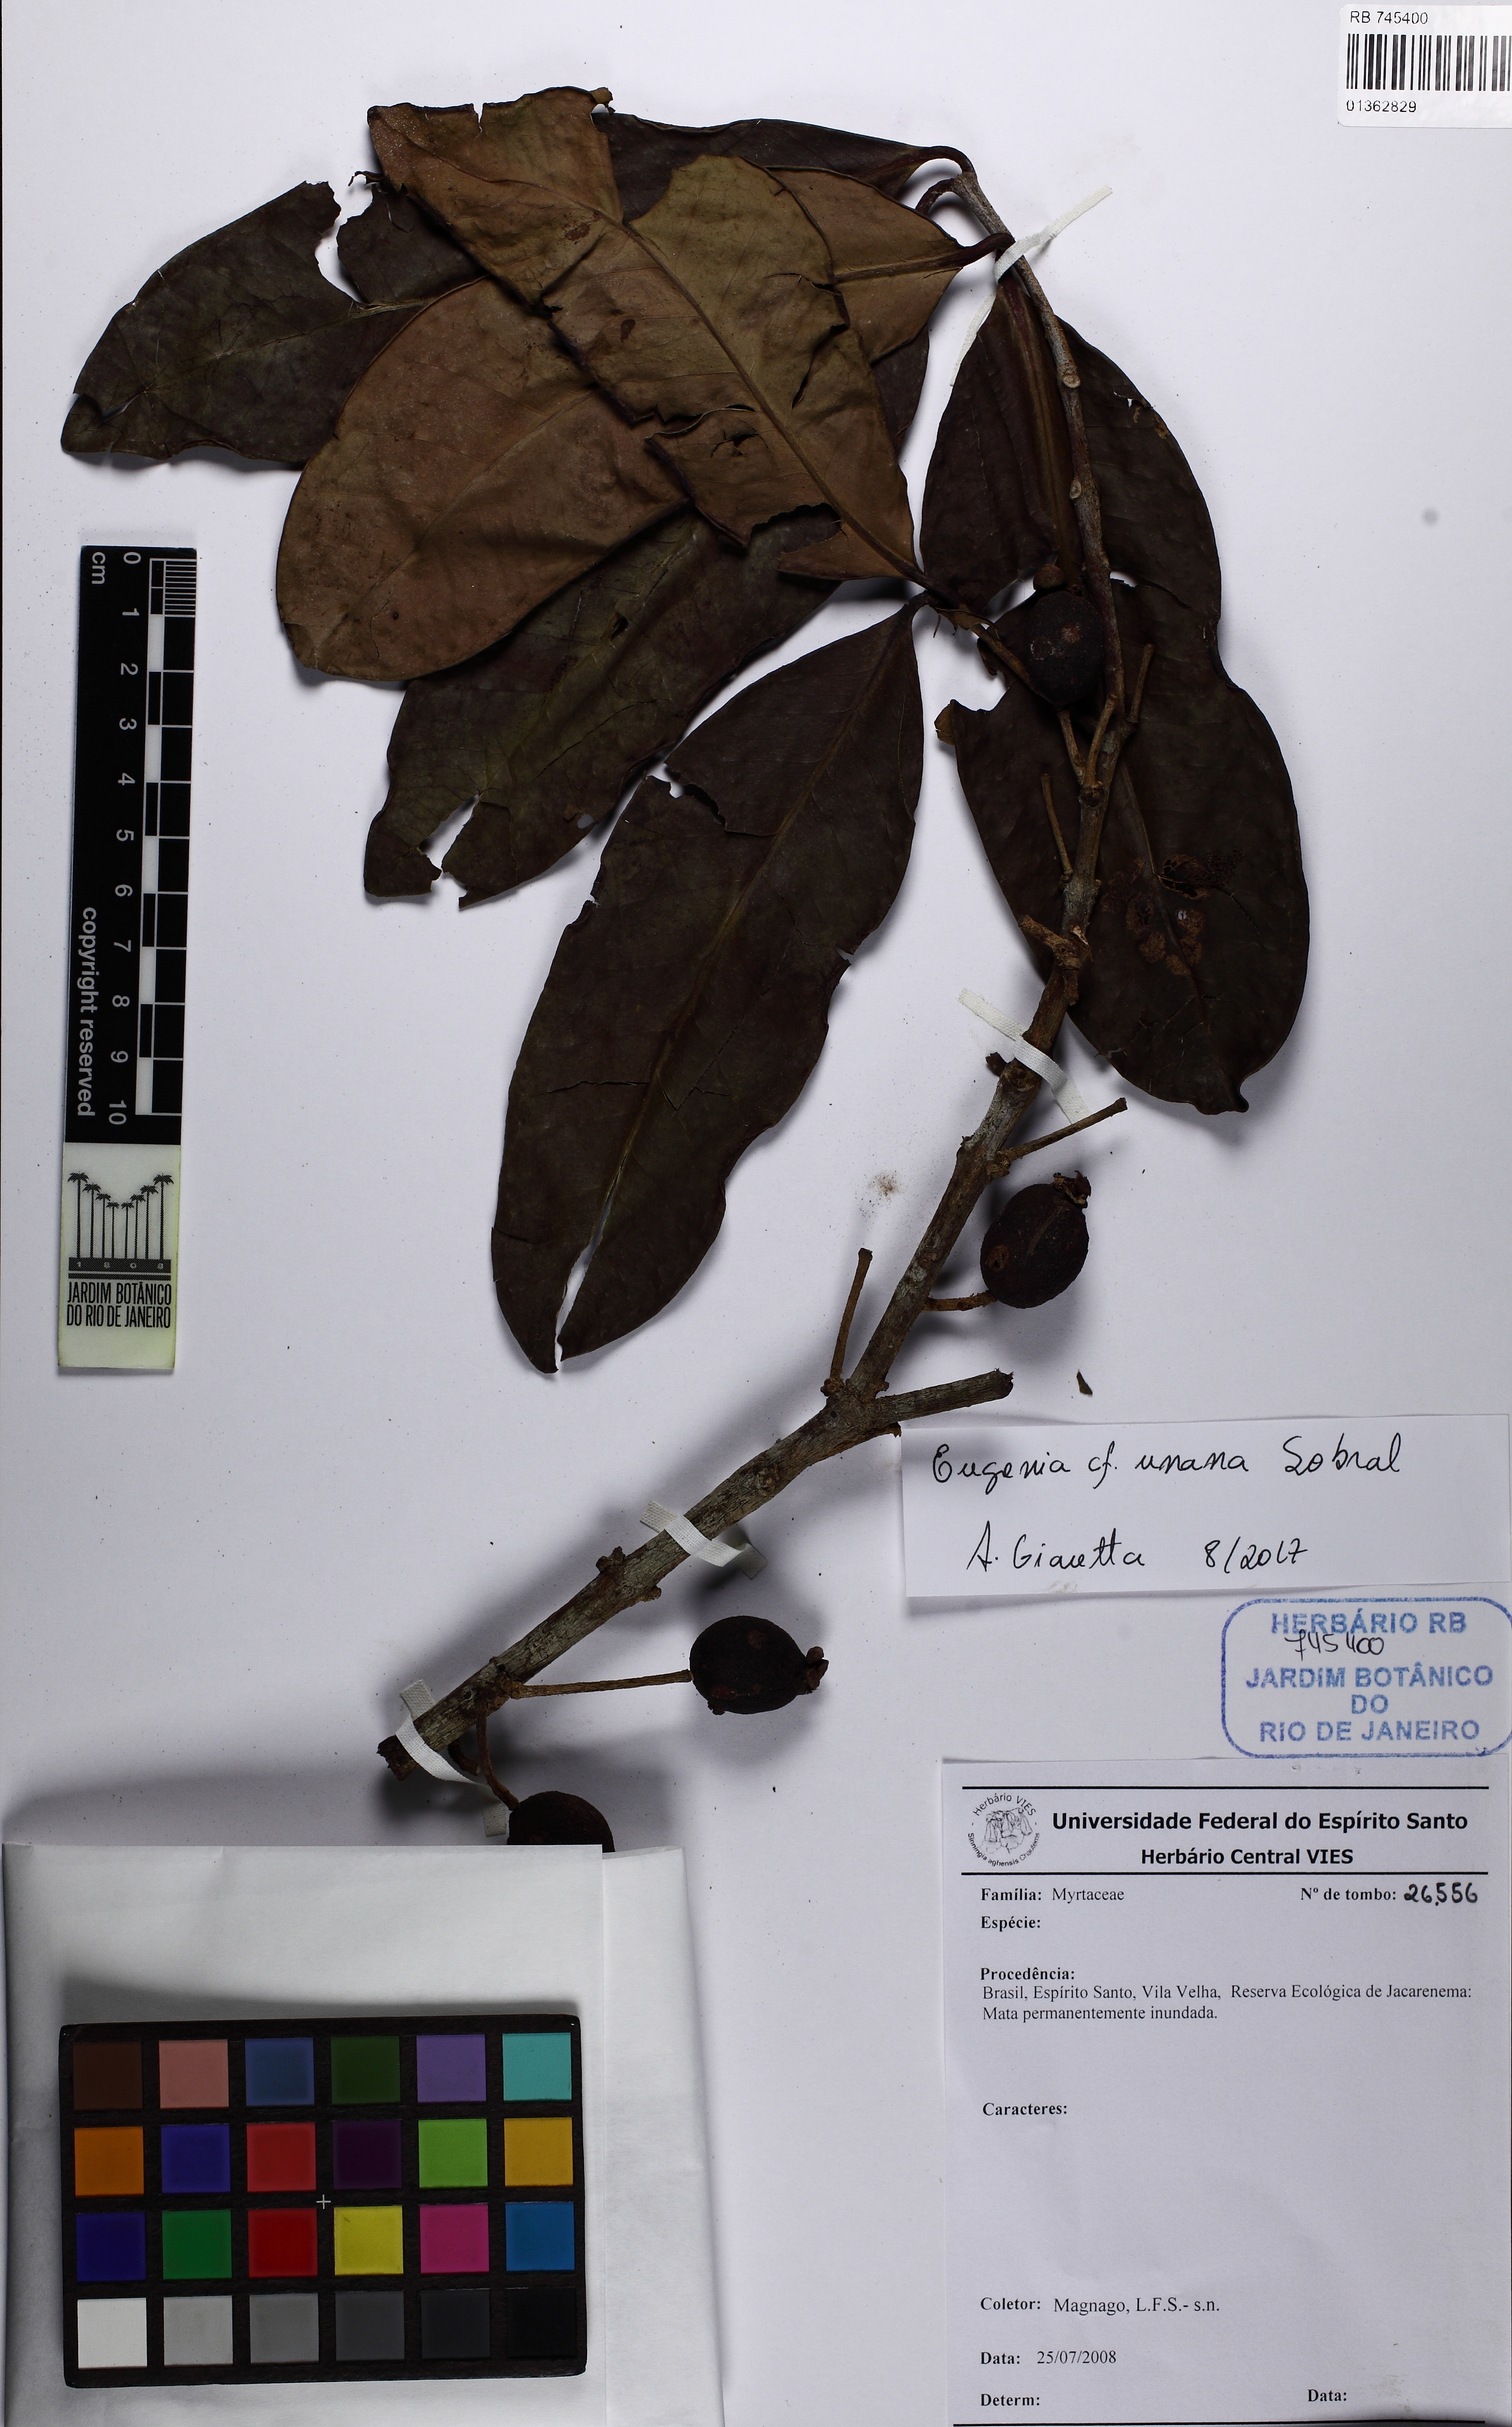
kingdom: Plantae
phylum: Tracheophyta
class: Magnoliopsida
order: Myrtales
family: Myrtaceae
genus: Eugenia
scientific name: Eugenia unana
